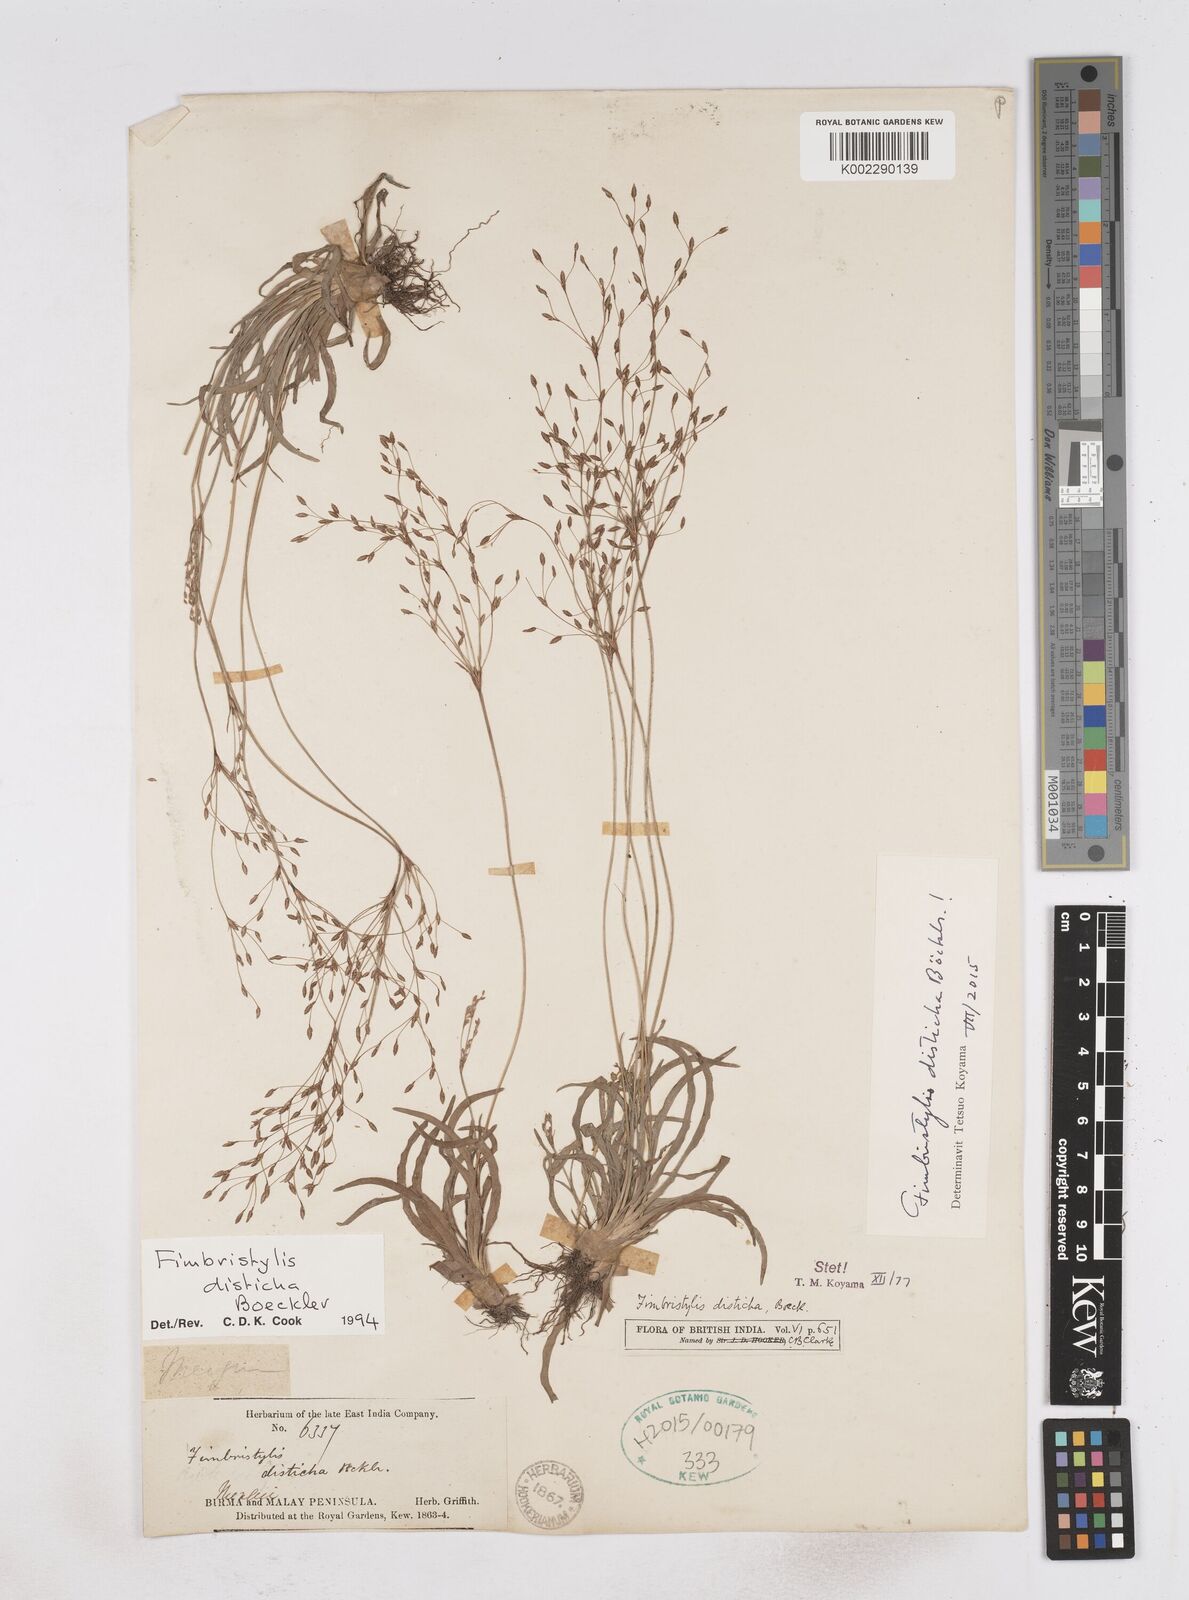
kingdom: Plantae
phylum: Tracheophyta
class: Liliopsida
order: Poales
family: Cyperaceae
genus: Fimbristylis
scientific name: Fimbristylis disticha
